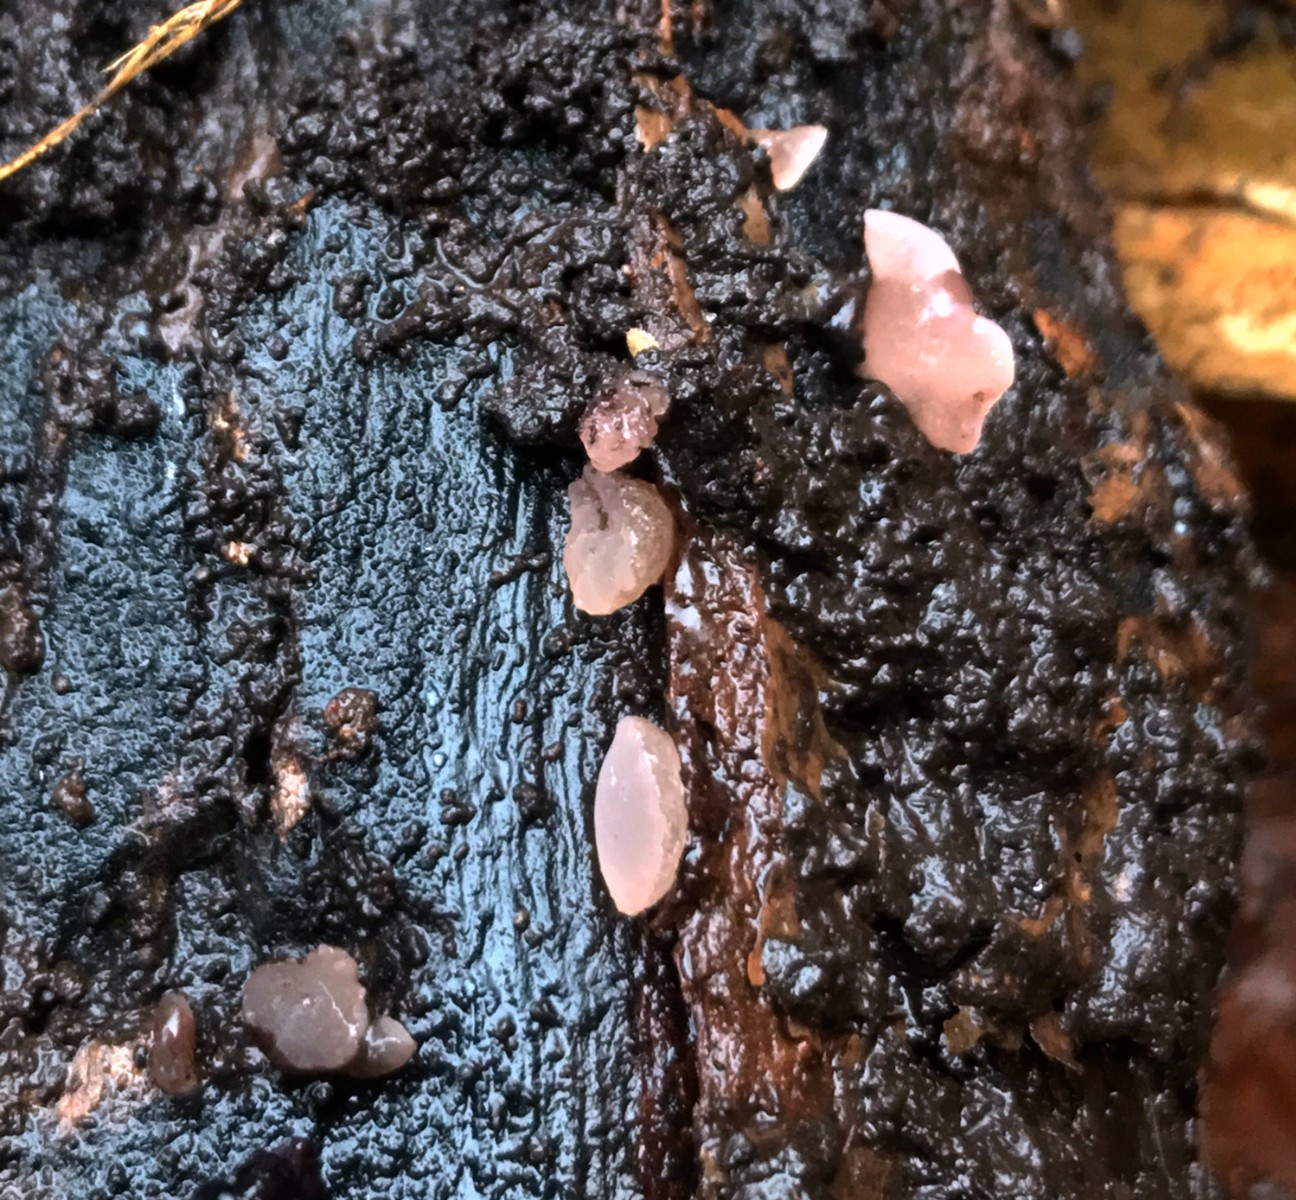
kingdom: Fungi
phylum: Ascomycota
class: Leotiomycetes
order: Helotiales
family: Gelatinodiscaceae
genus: Ombrophila
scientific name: Ombrophila
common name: bævreskive
